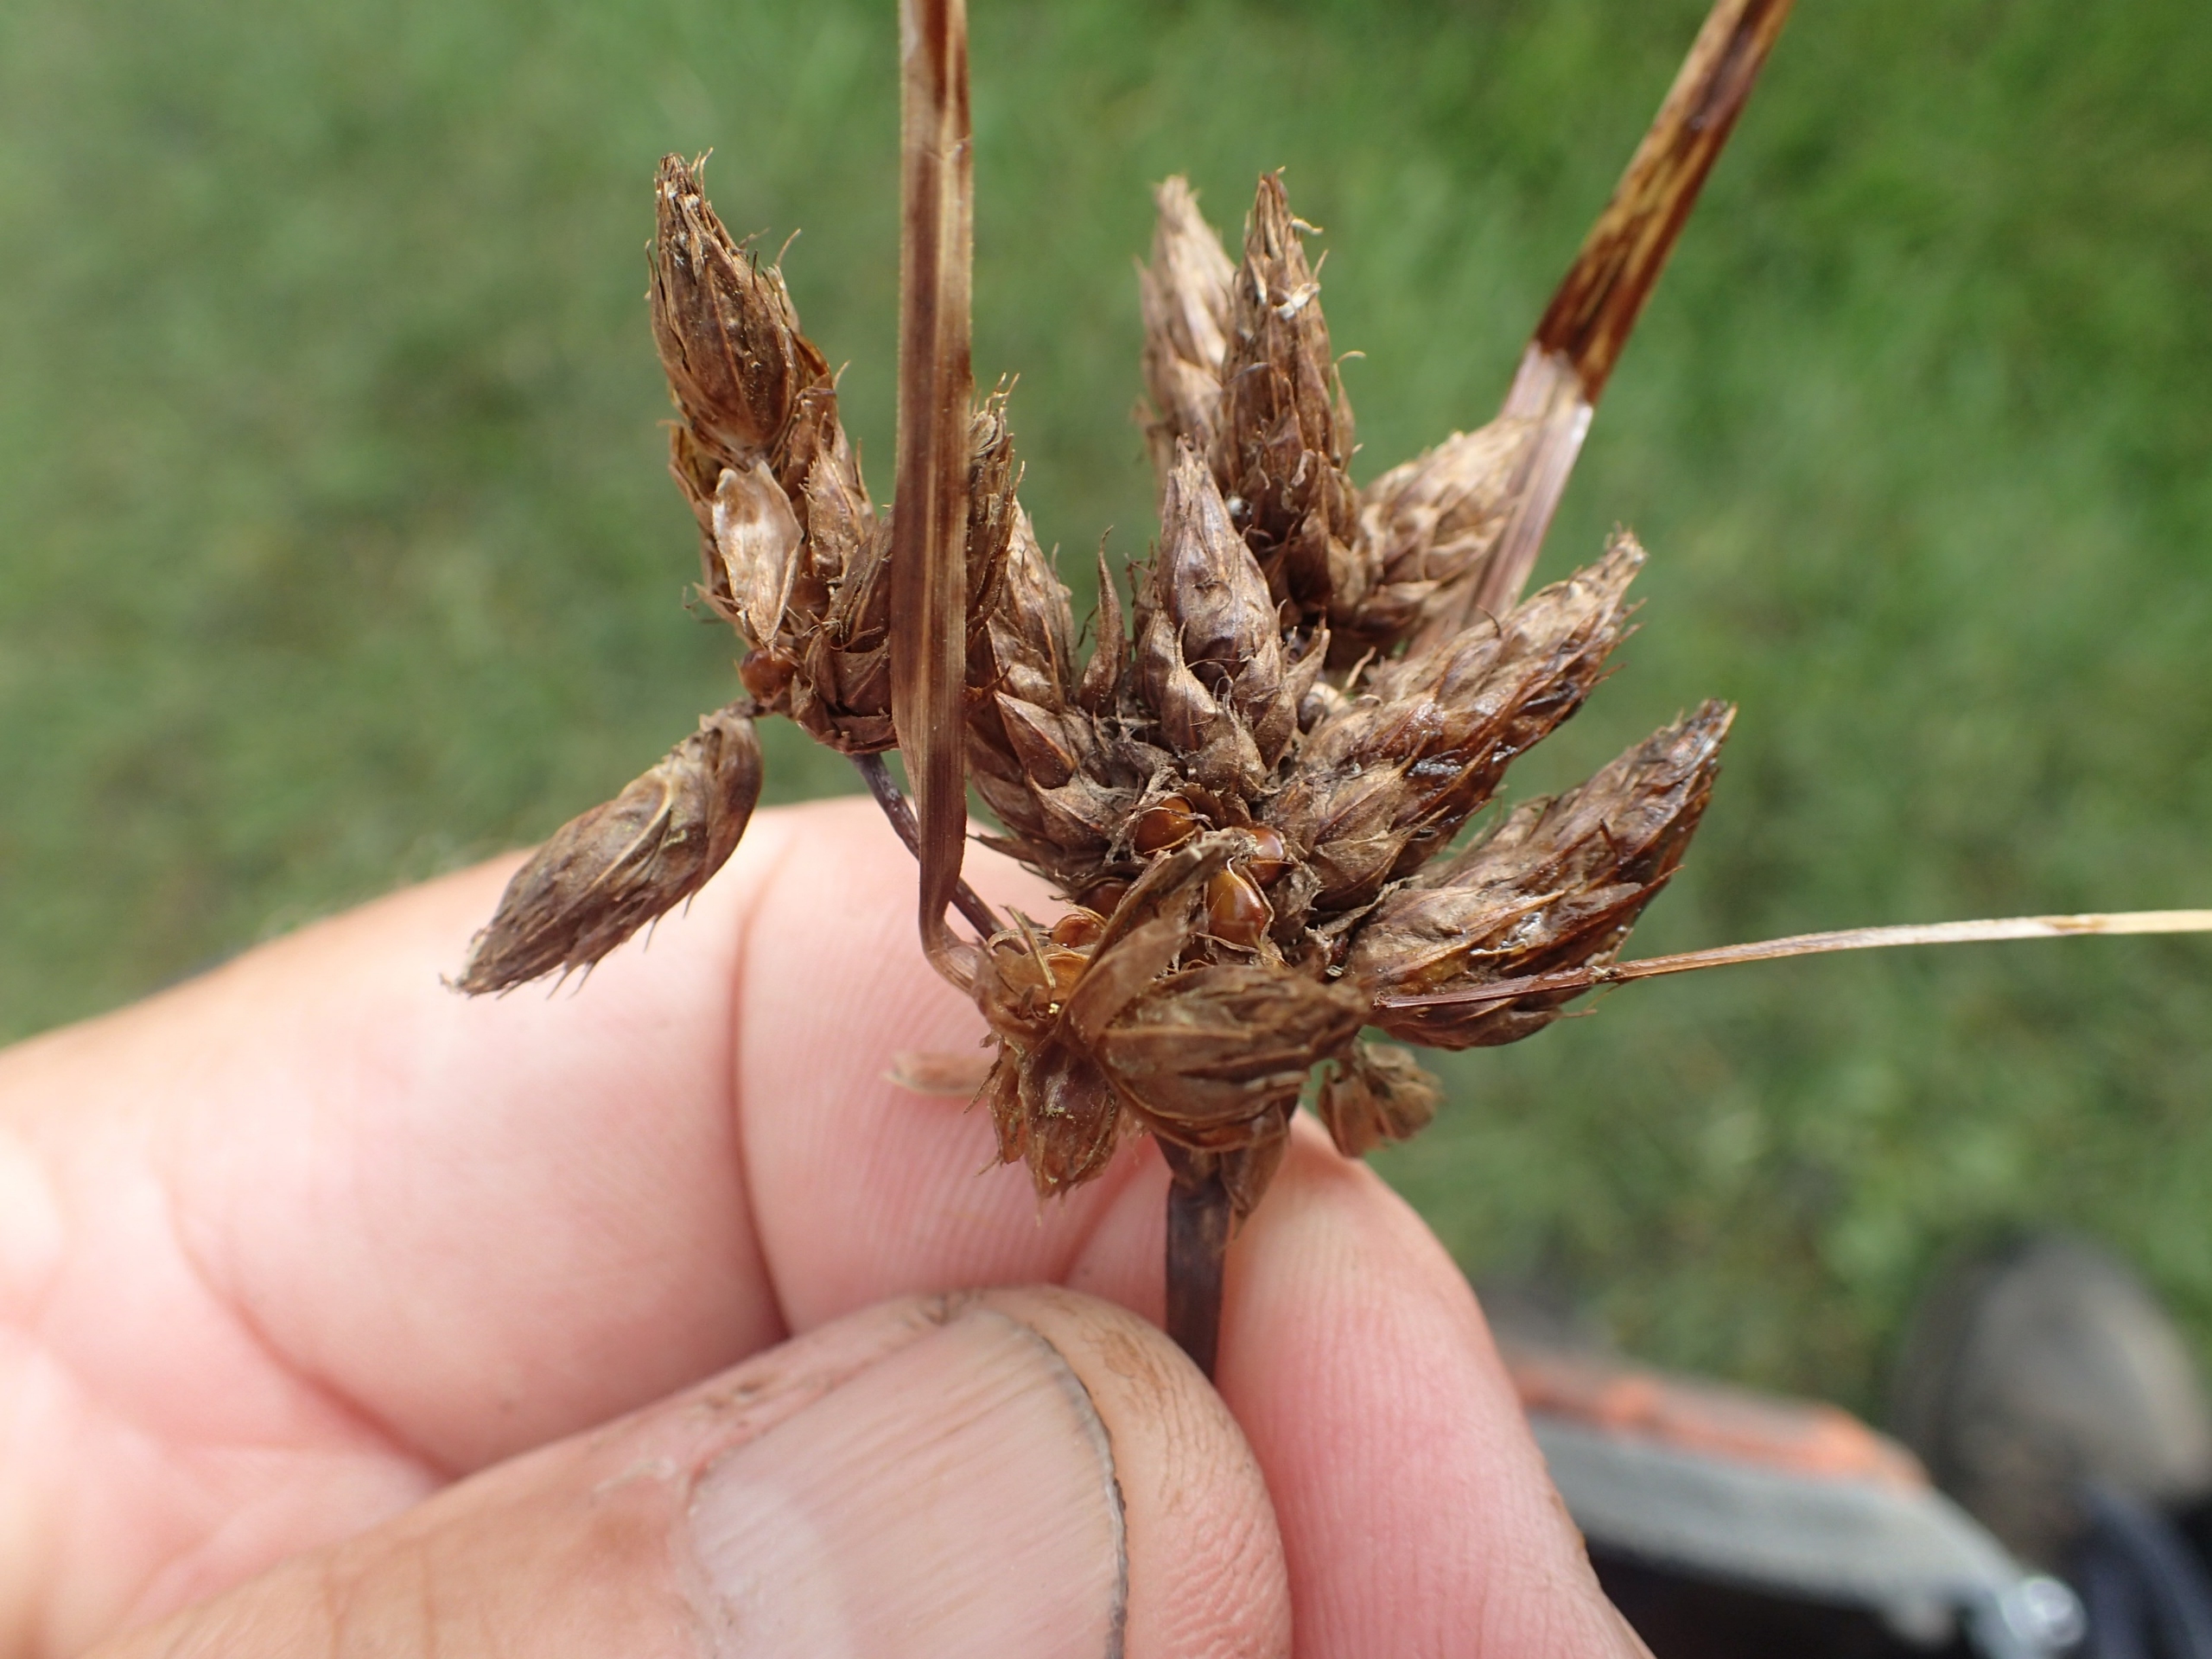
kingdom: Plantae
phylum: Tracheophyta
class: Liliopsida
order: Poales
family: Cyperaceae
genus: Schoenoplectus
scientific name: Schoenoplectus lacustris
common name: Sø-kogleaks
